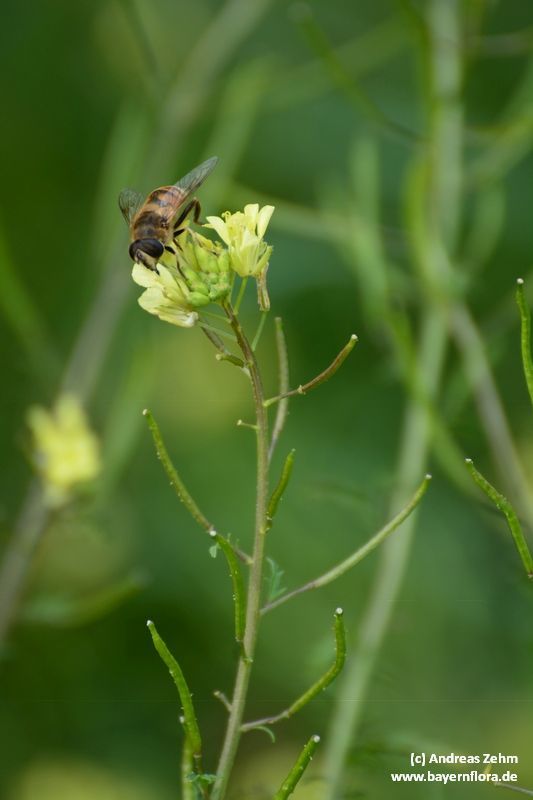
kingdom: Plantae
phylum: Tracheophyta
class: Magnoliopsida
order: Brassicales
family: Brassicaceae
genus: Erucastrum
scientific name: Erucastrum nasturtiifolium
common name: Watercress-leaf rocket
